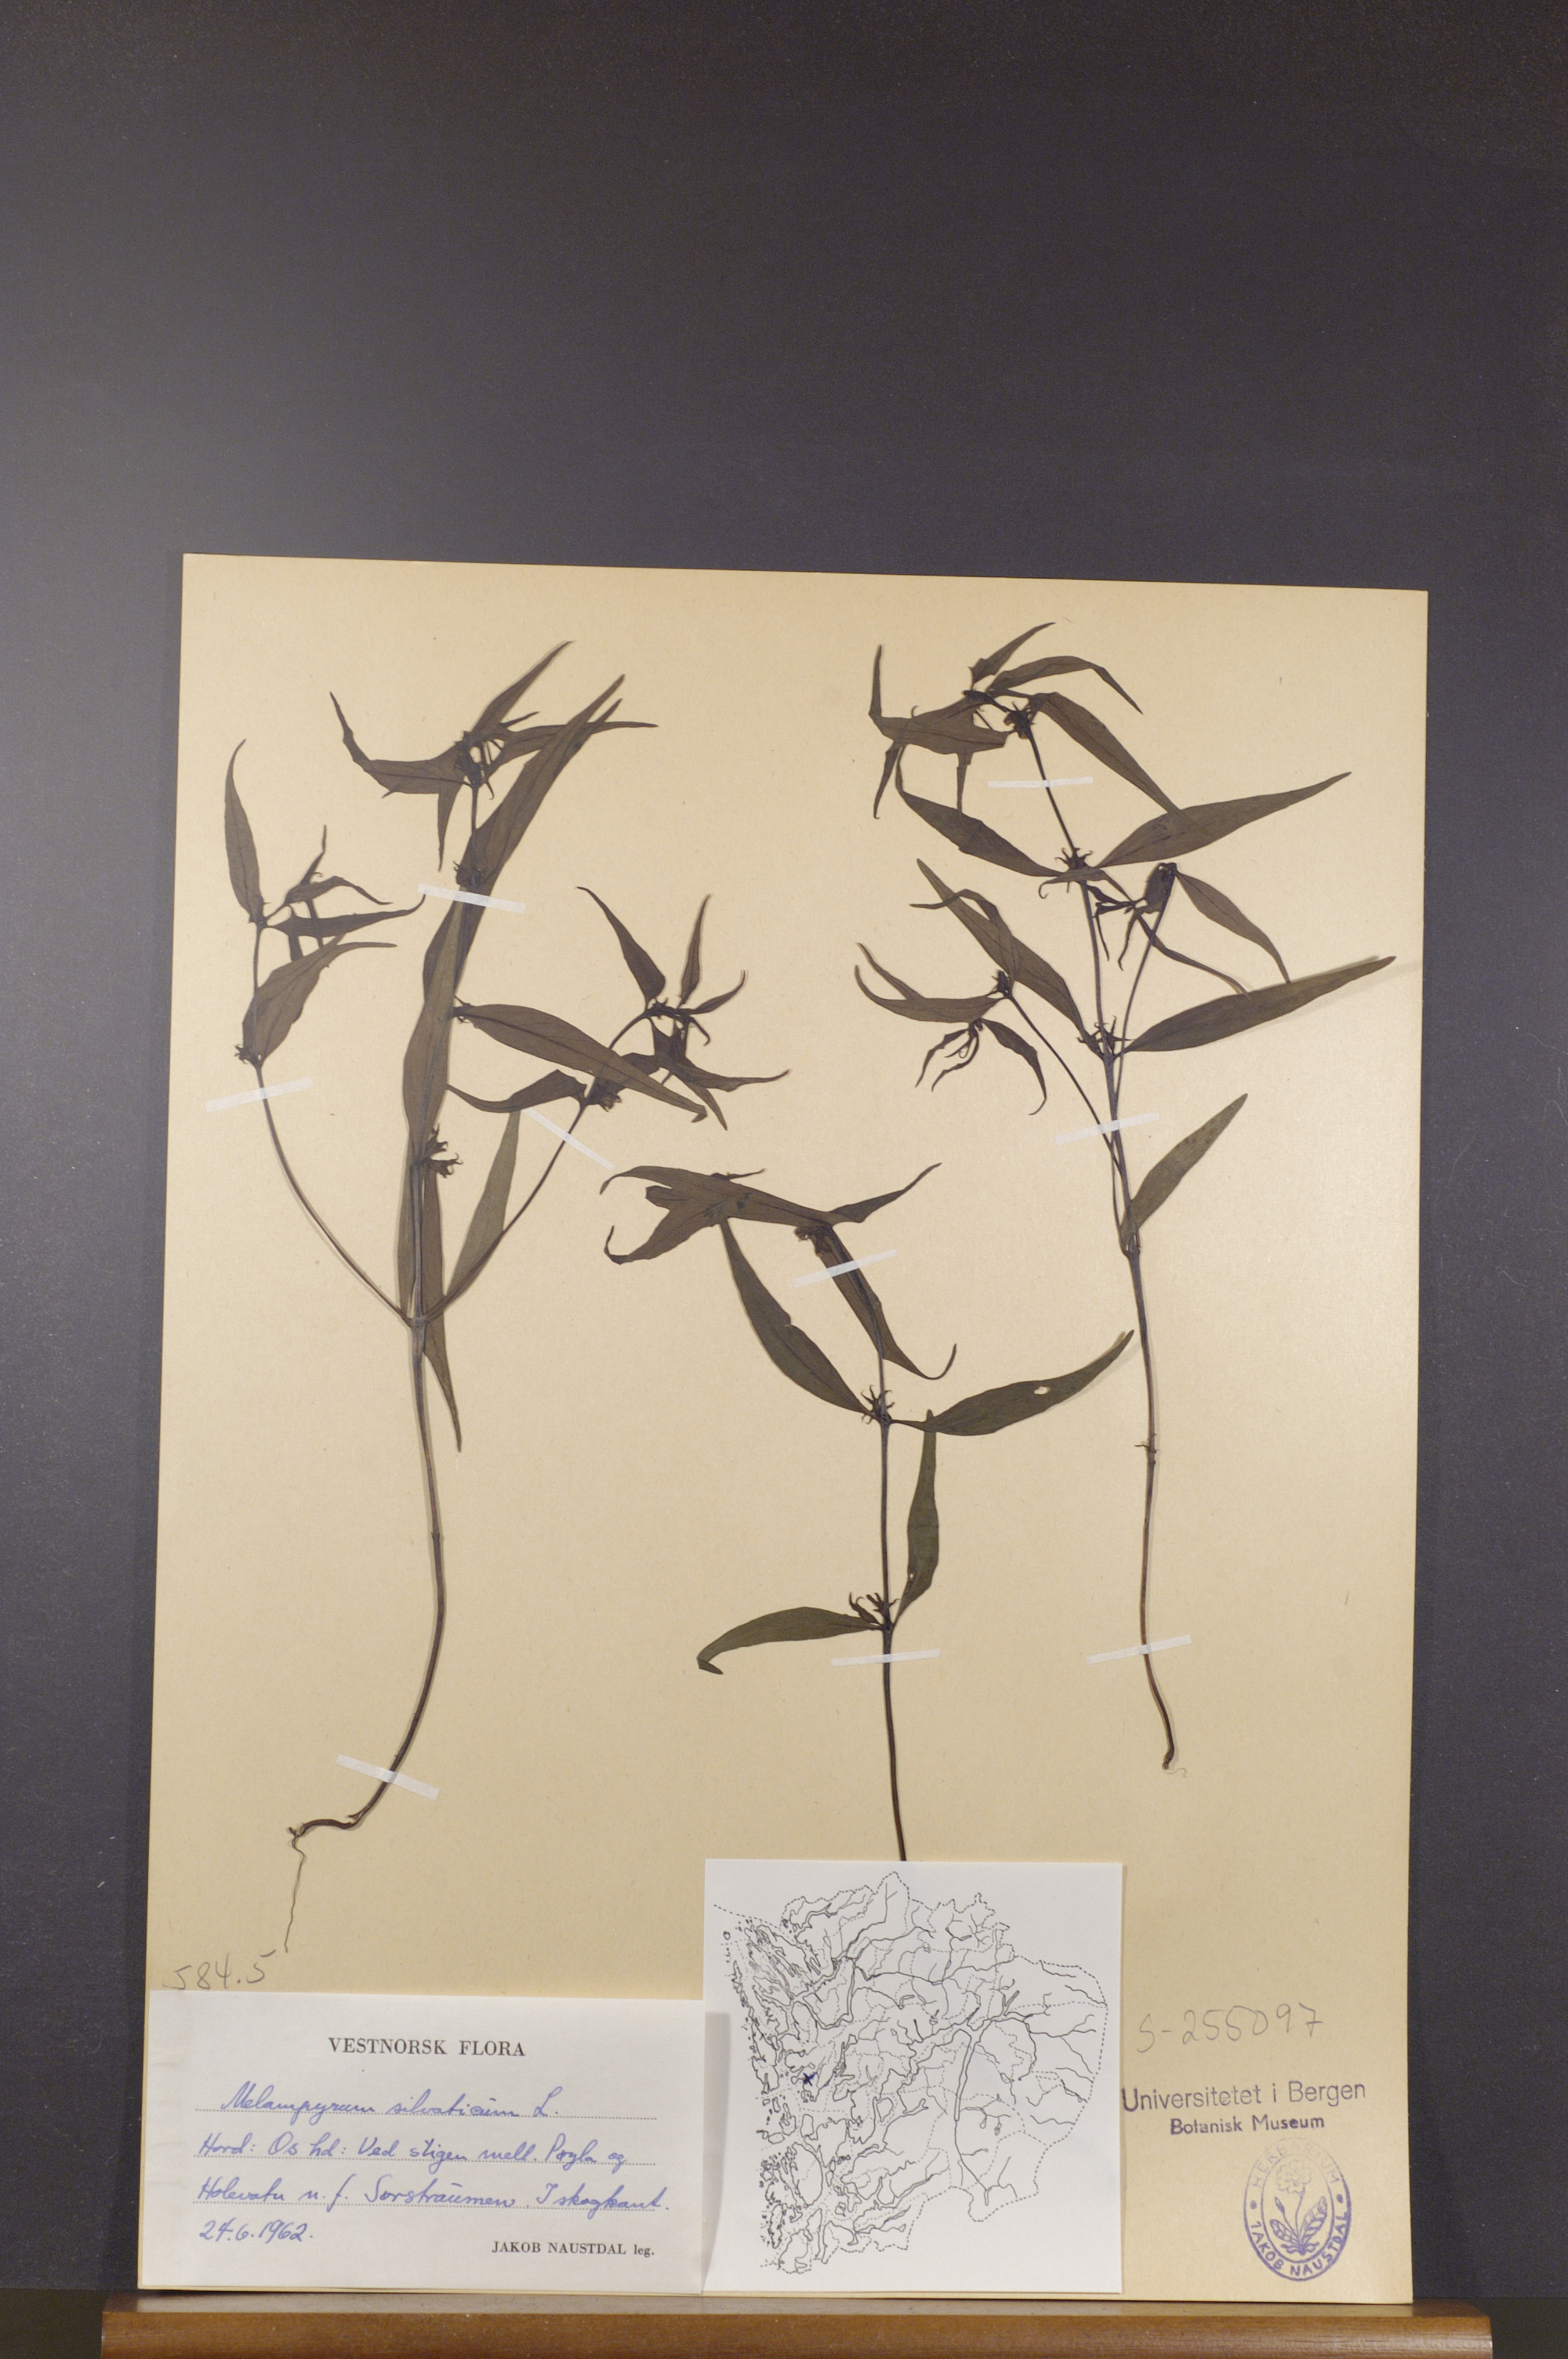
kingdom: Plantae
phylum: Tracheophyta
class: Magnoliopsida
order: Lamiales
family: Orobanchaceae
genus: Melampyrum
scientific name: Melampyrum sylvaticum
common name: Small cow-wheat
